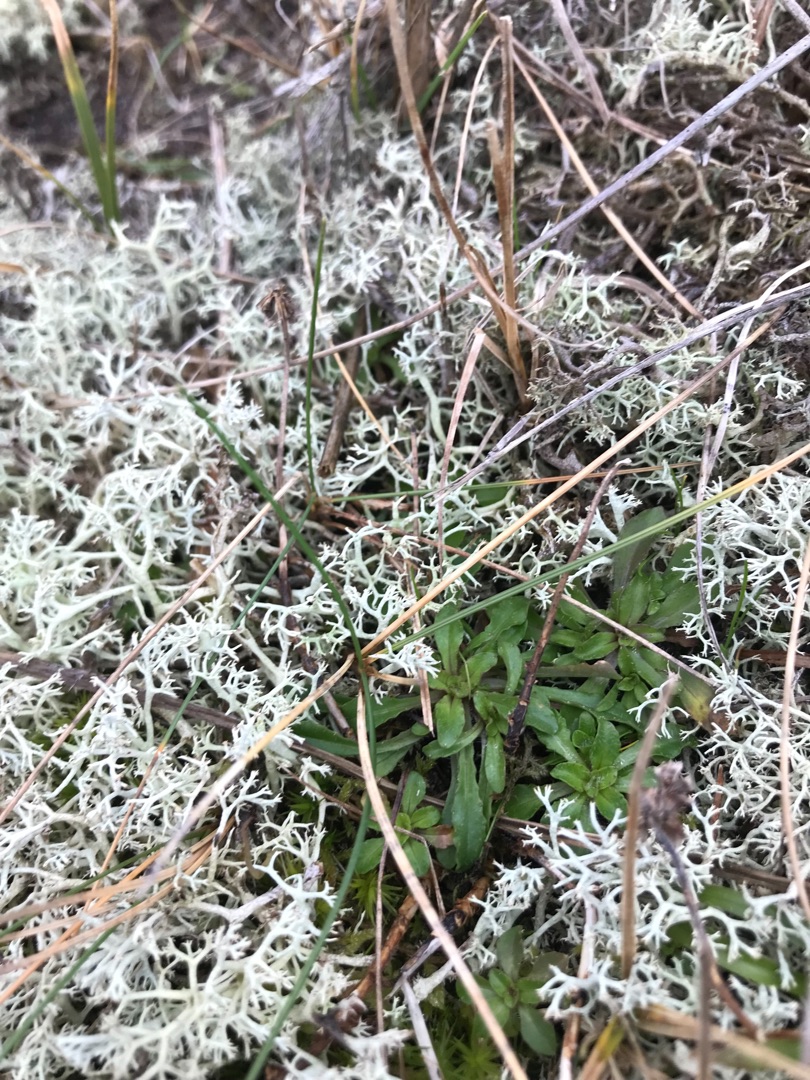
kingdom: Fungi
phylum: Ascomycota
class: Lecanoromycetes
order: Lecanorales
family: Cladoniaceae
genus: Cladina
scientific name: Cladina
